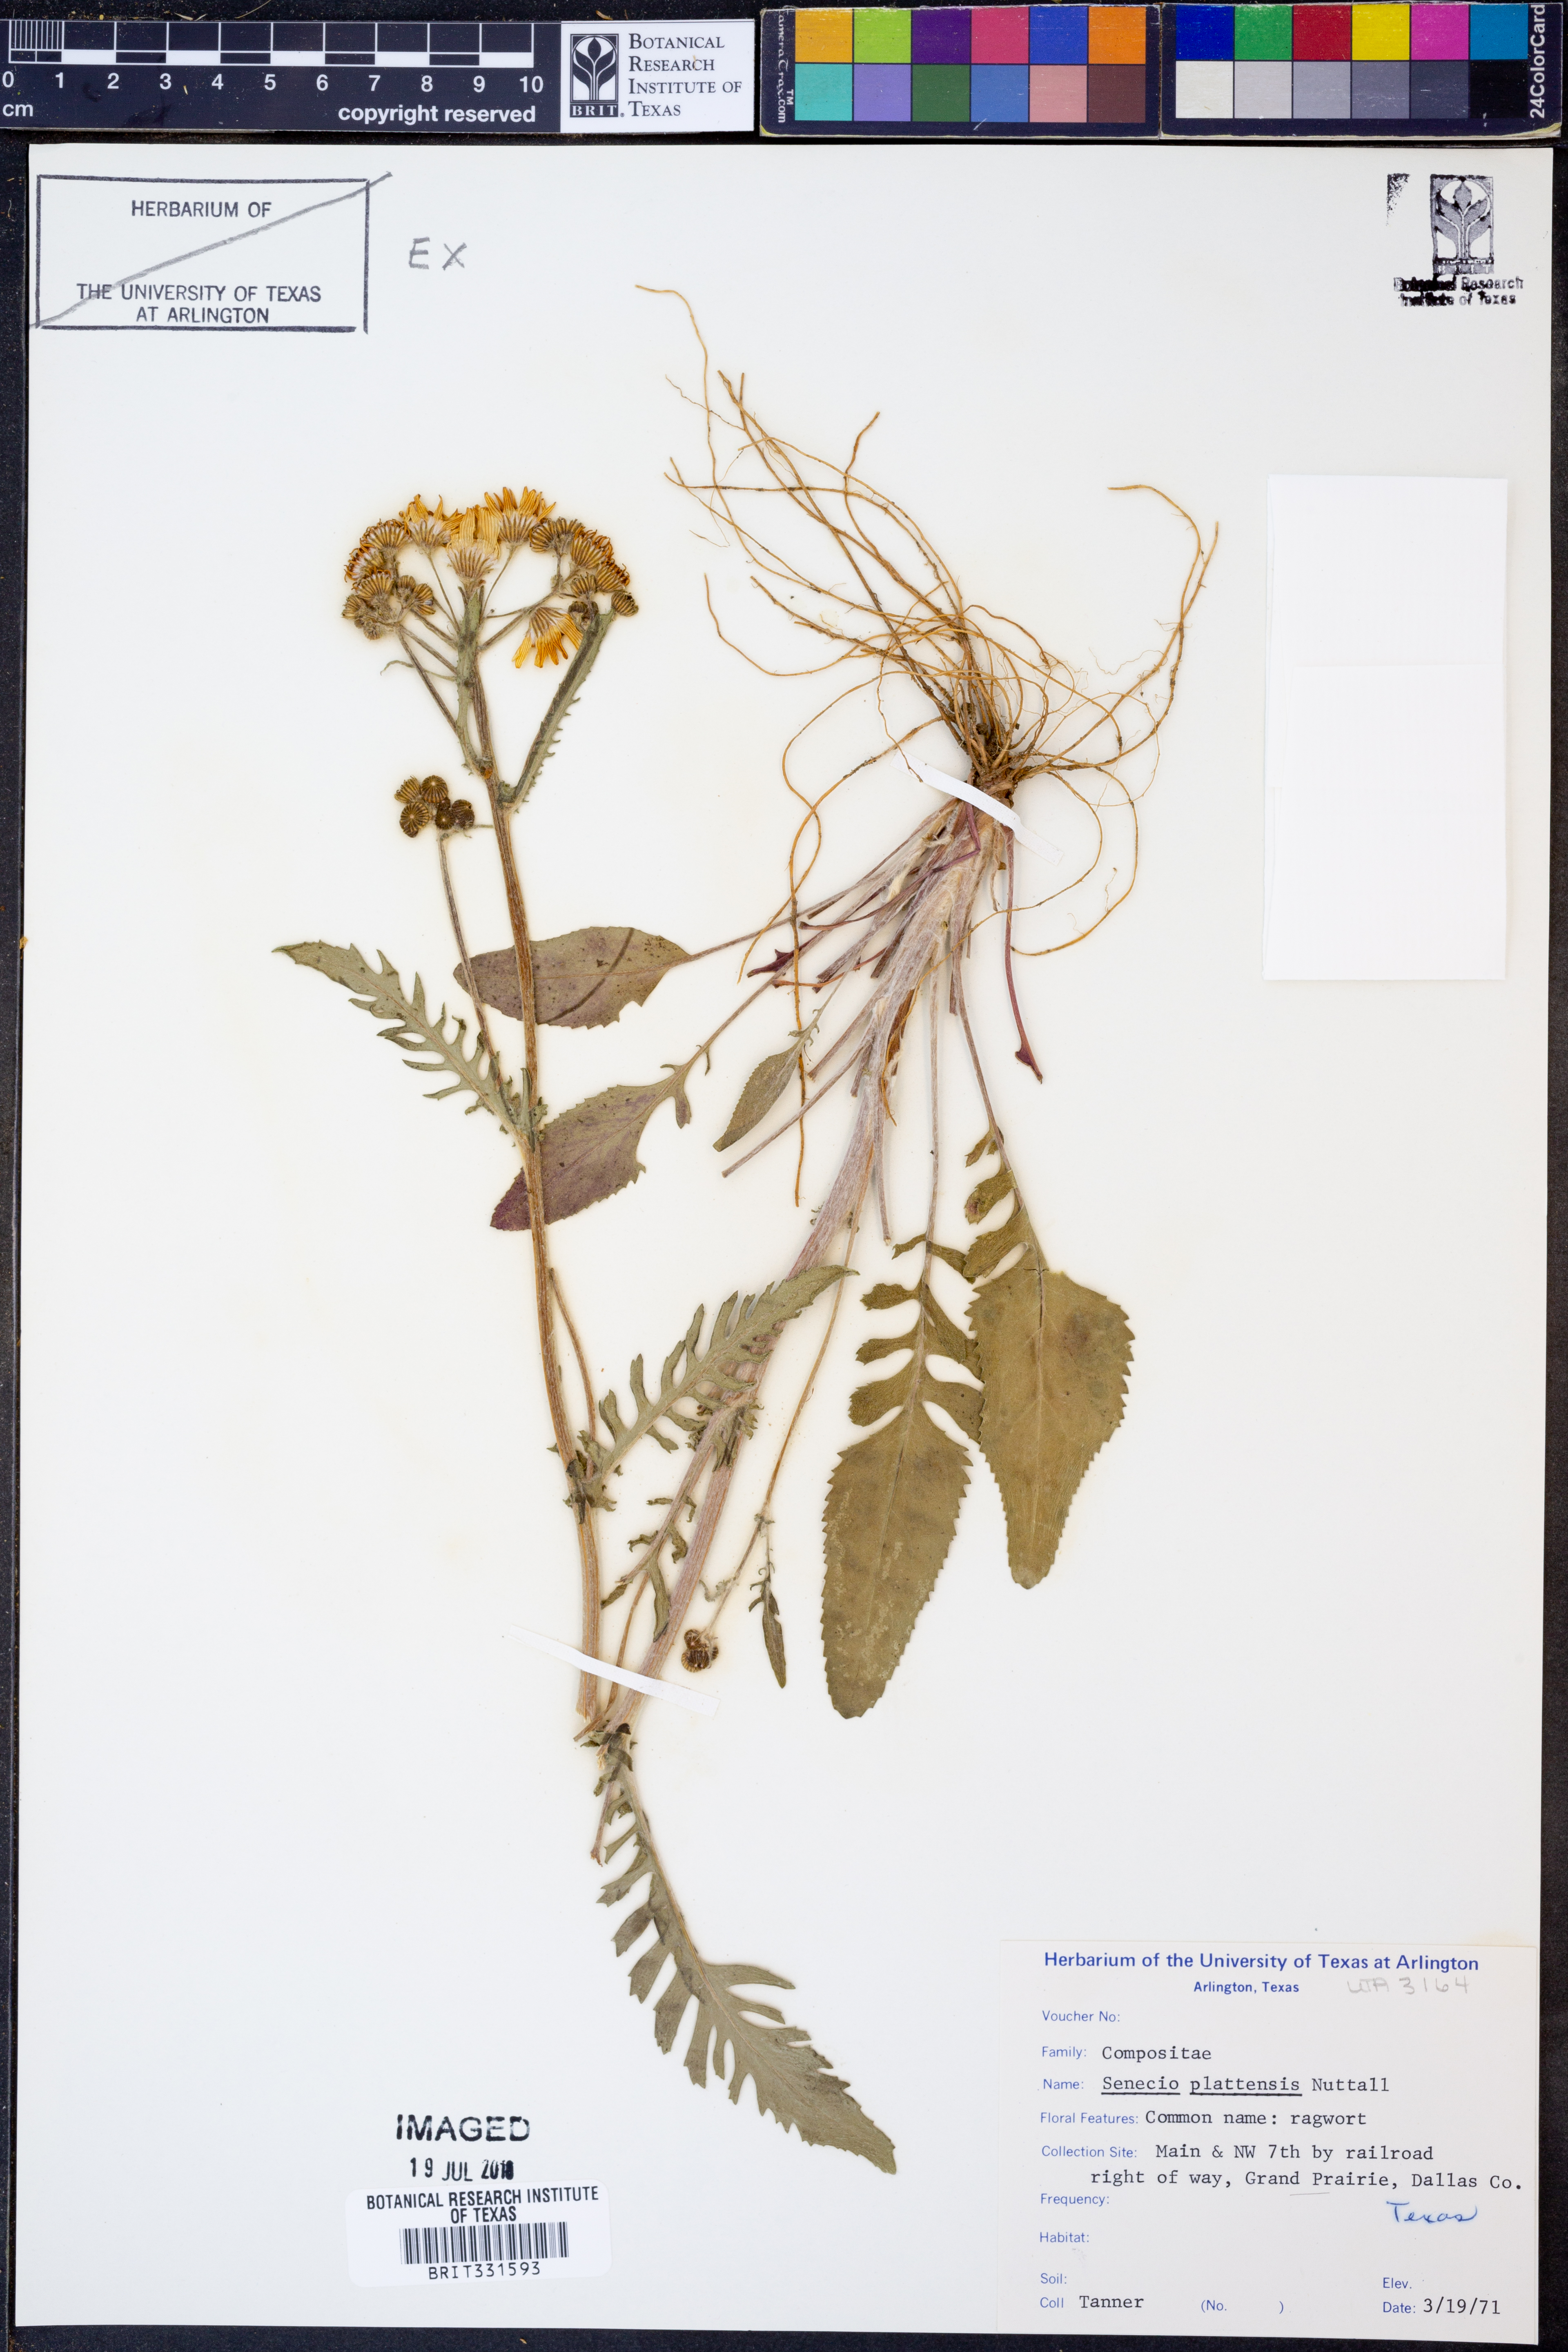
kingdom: Plantae
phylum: Tracheophyta
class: Magnoliopsida
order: Asterales
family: Asteraceae
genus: Packera
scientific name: Packera plattensis
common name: Prairie groundsel
